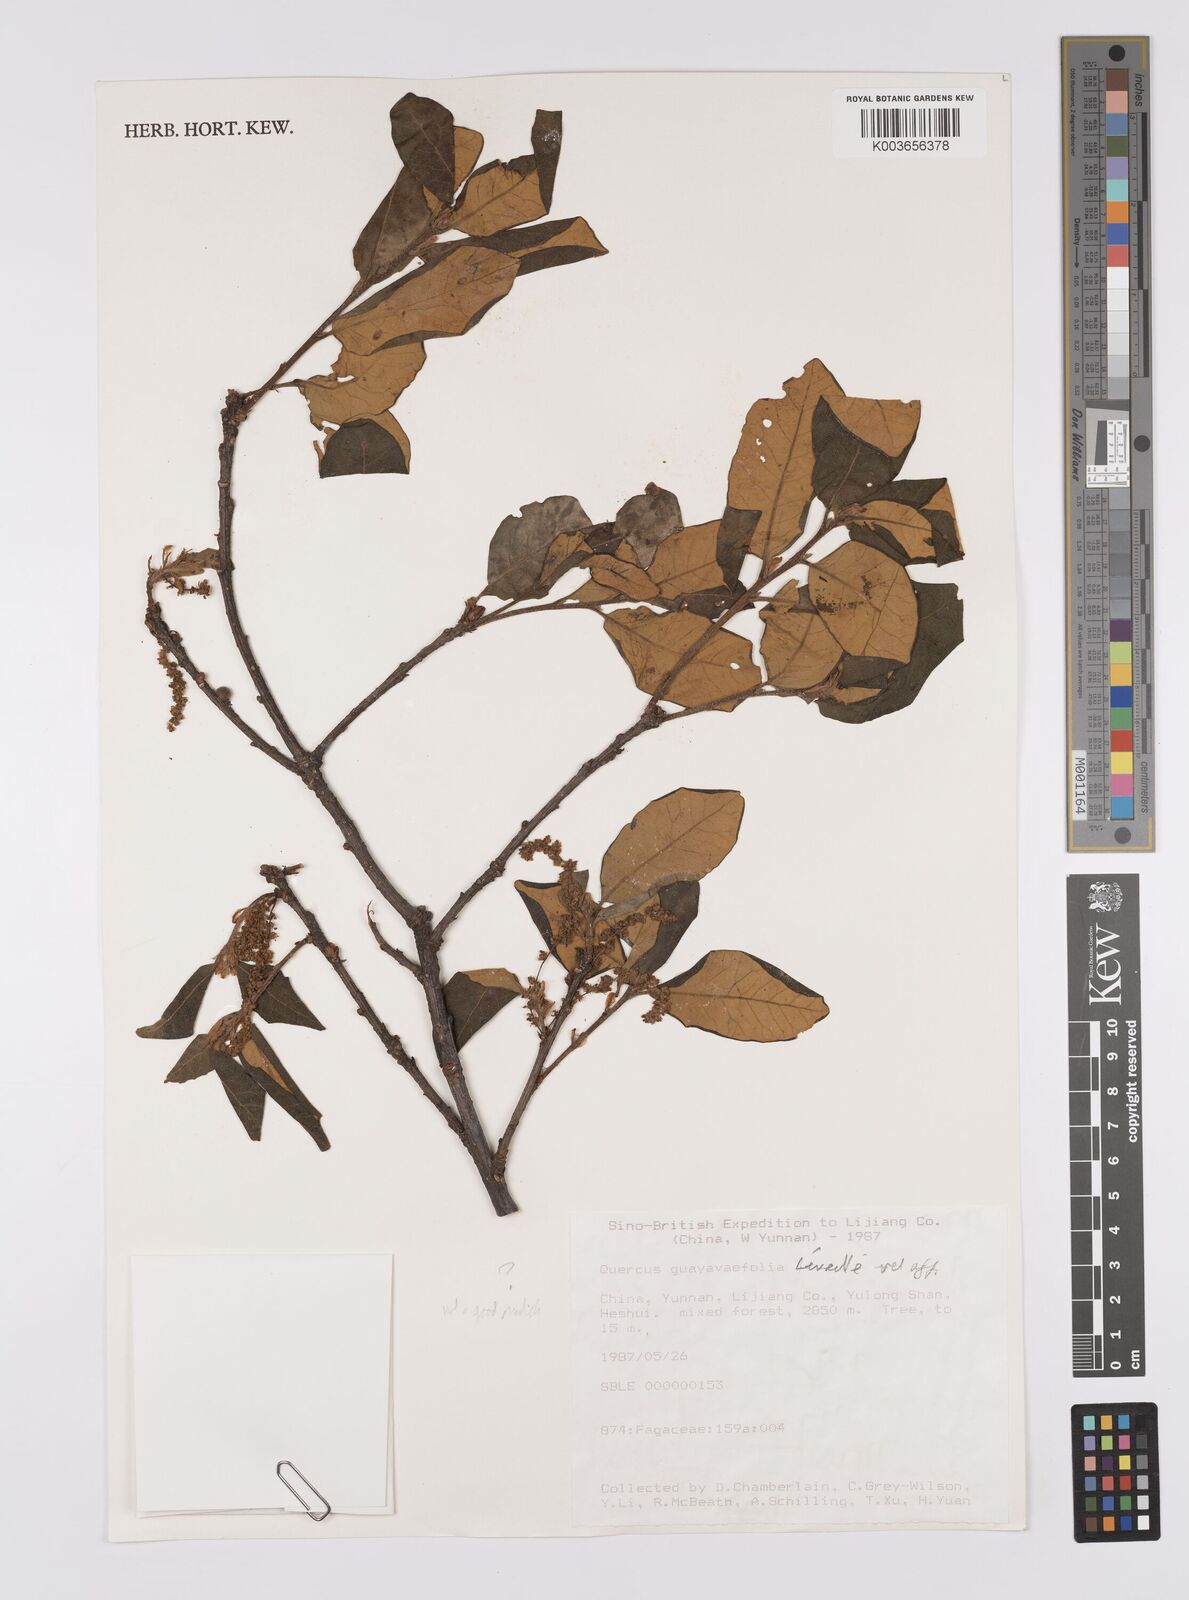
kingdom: Plantae
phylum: Tracheophyta
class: Magnoliopsida
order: Fagales
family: Fagaceae
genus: Quercus
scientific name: Quercus guyavifolia
